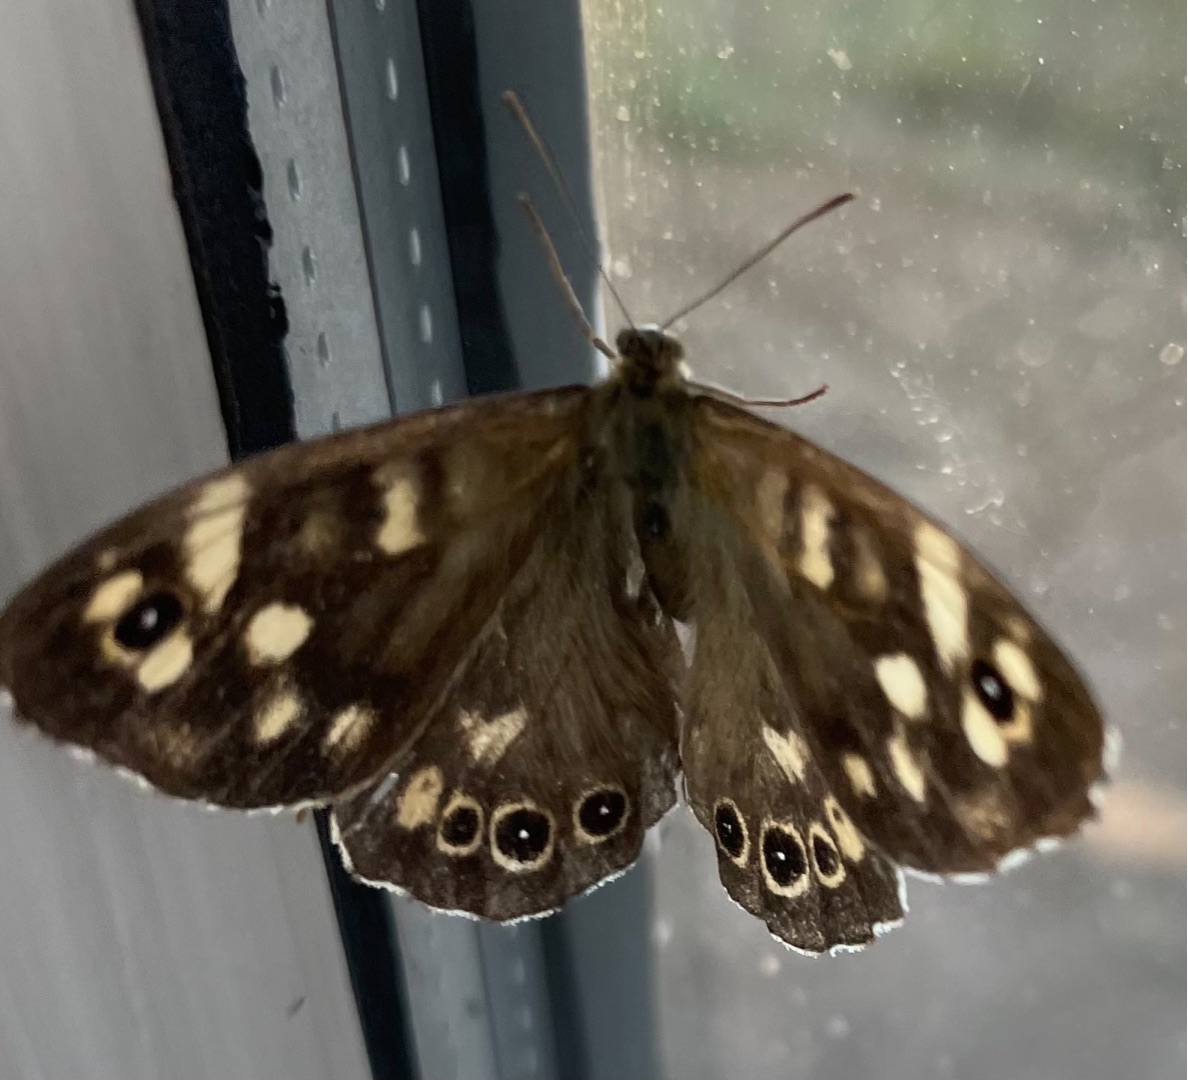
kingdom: Animalia
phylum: Arthropoda
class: Insecta
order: Lepidoptera
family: Nymphalidae
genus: Pararge
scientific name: Pararge aegeria
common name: Skovrandøje
